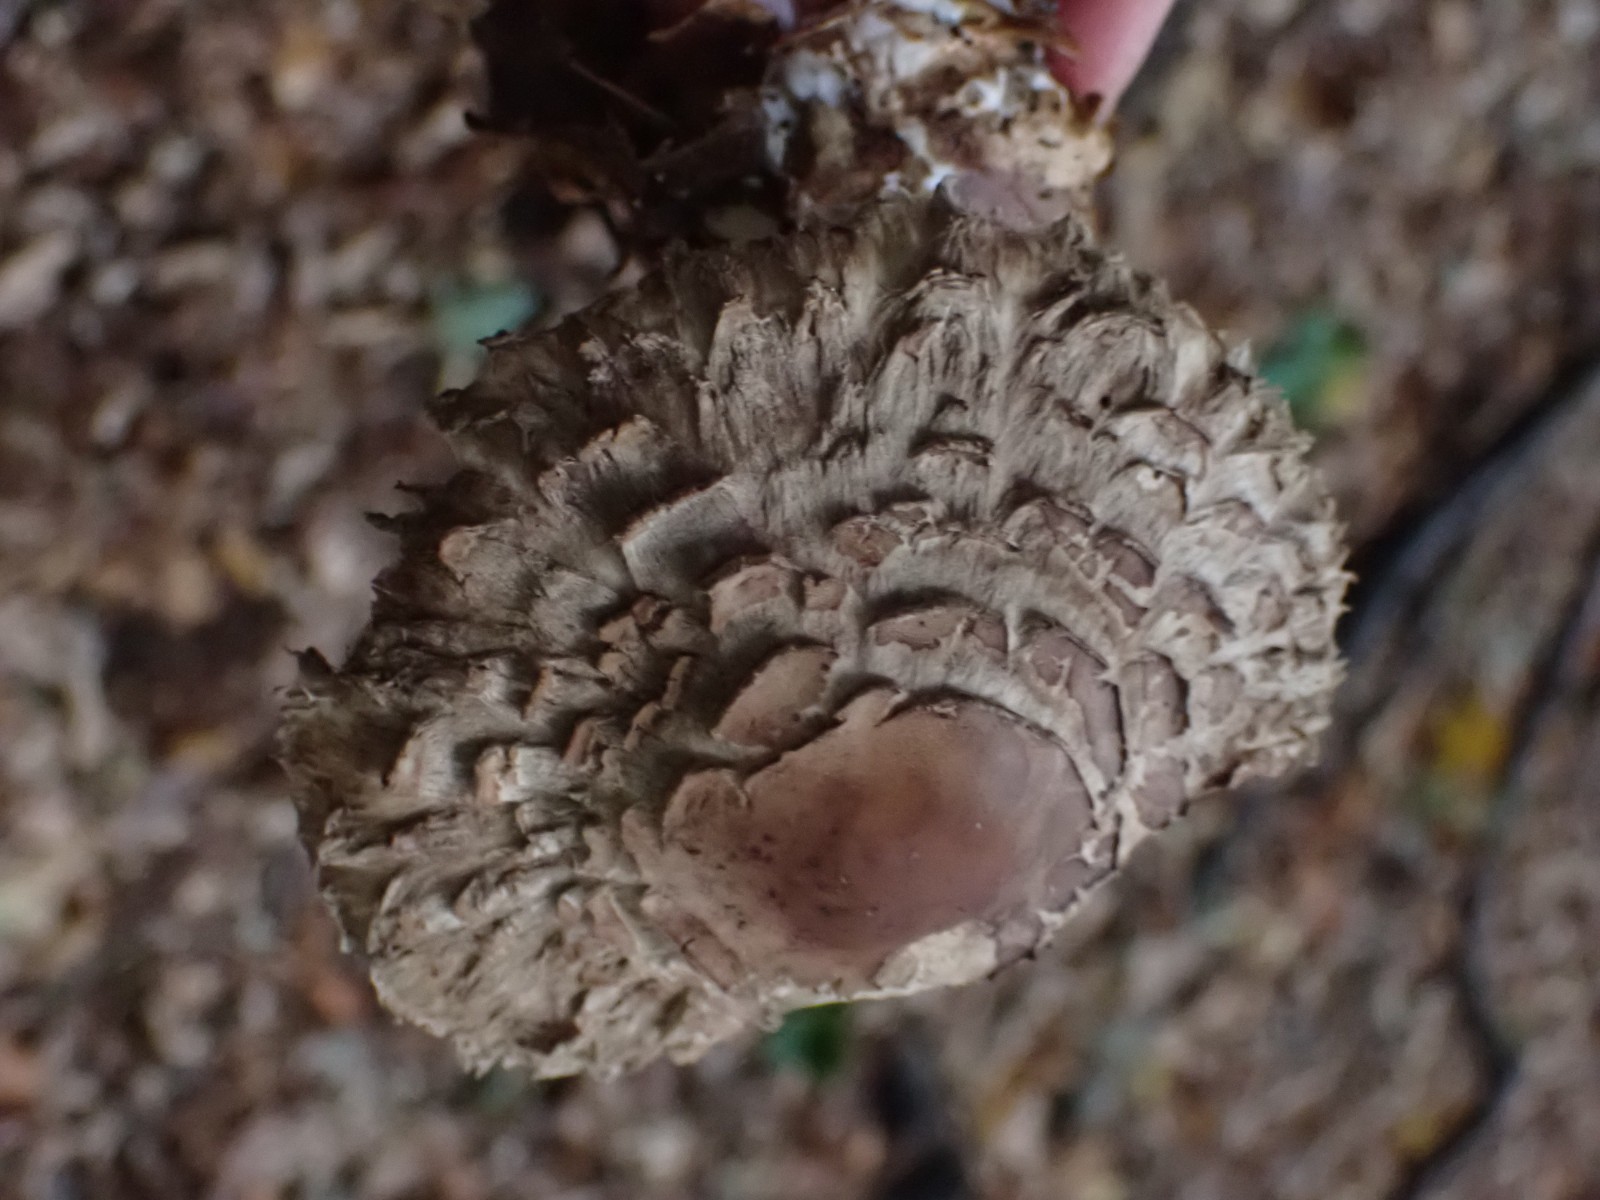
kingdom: Fungi
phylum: Basidiomycota
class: Agaricomycetes
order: Agaricales
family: Agaricaceae
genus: Chlorophyllum
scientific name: Chlorophyllum
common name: rabarberhat
